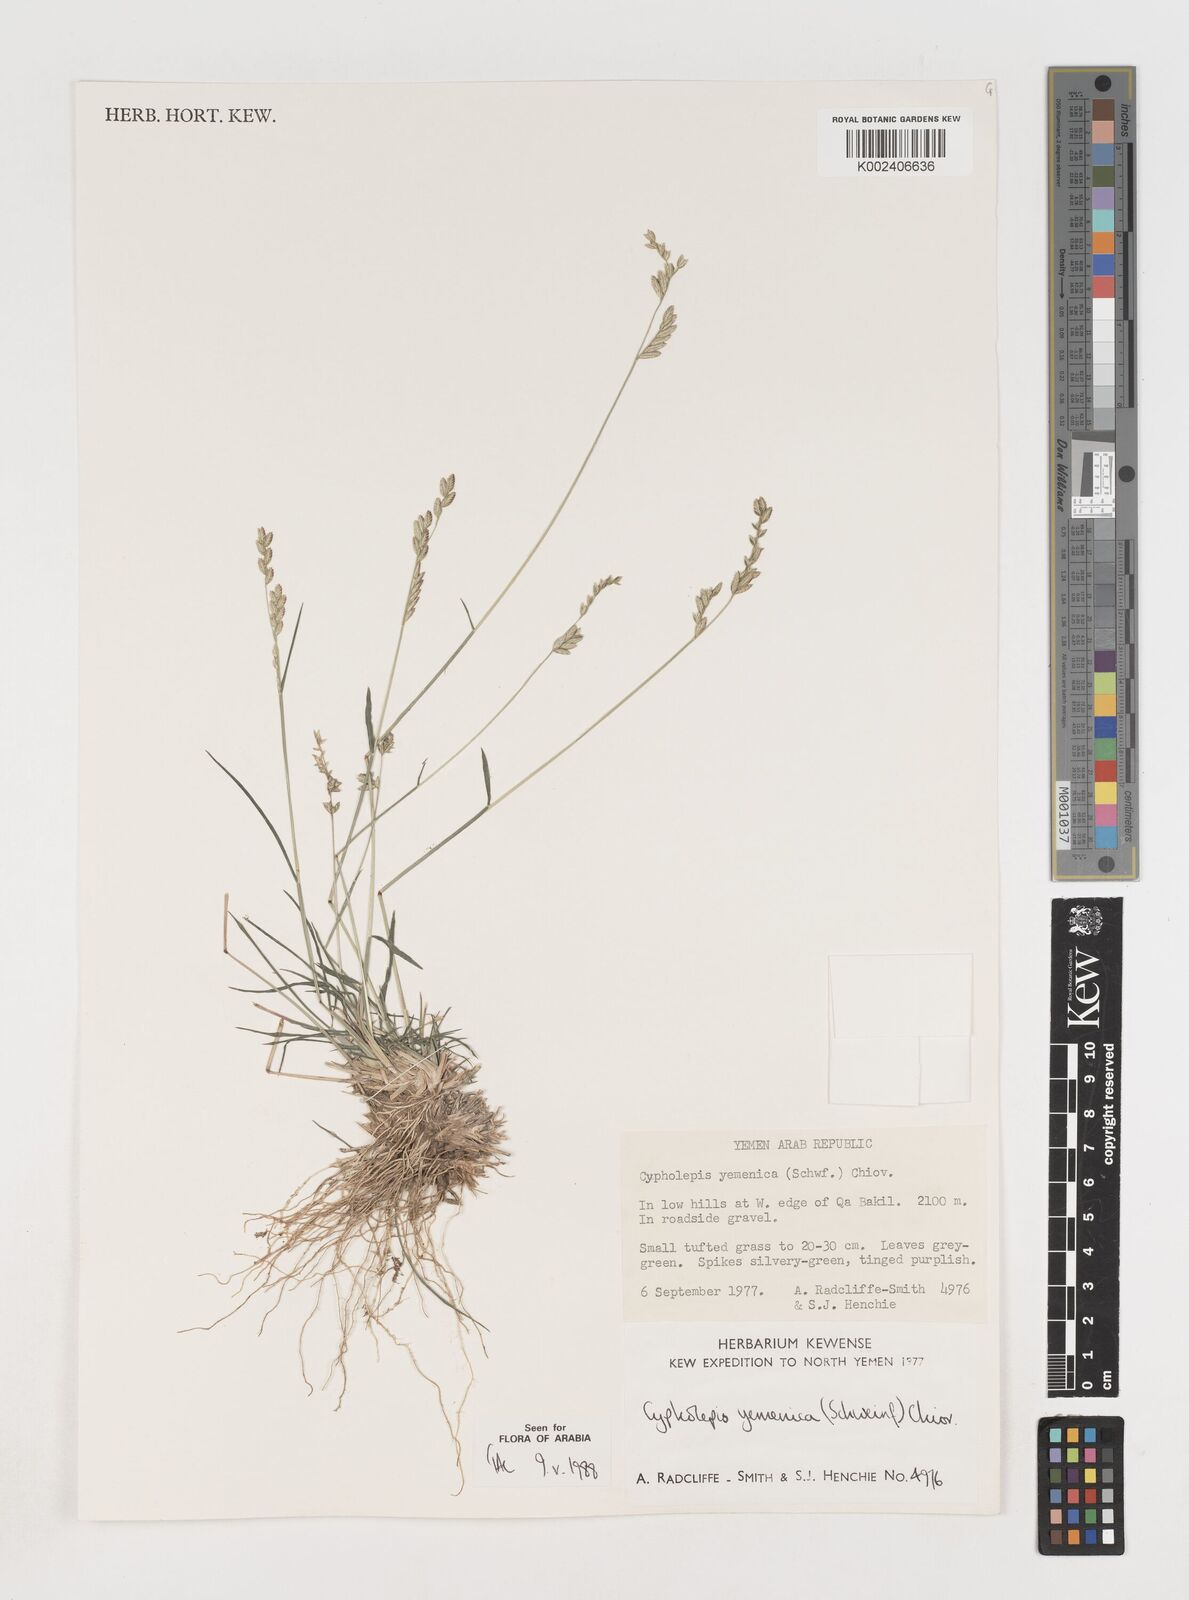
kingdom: Plantae
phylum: Tracheophyta
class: Liliopsida
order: Poales
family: Poaceae
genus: Disakisperma
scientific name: Disakisperma yemenicum
